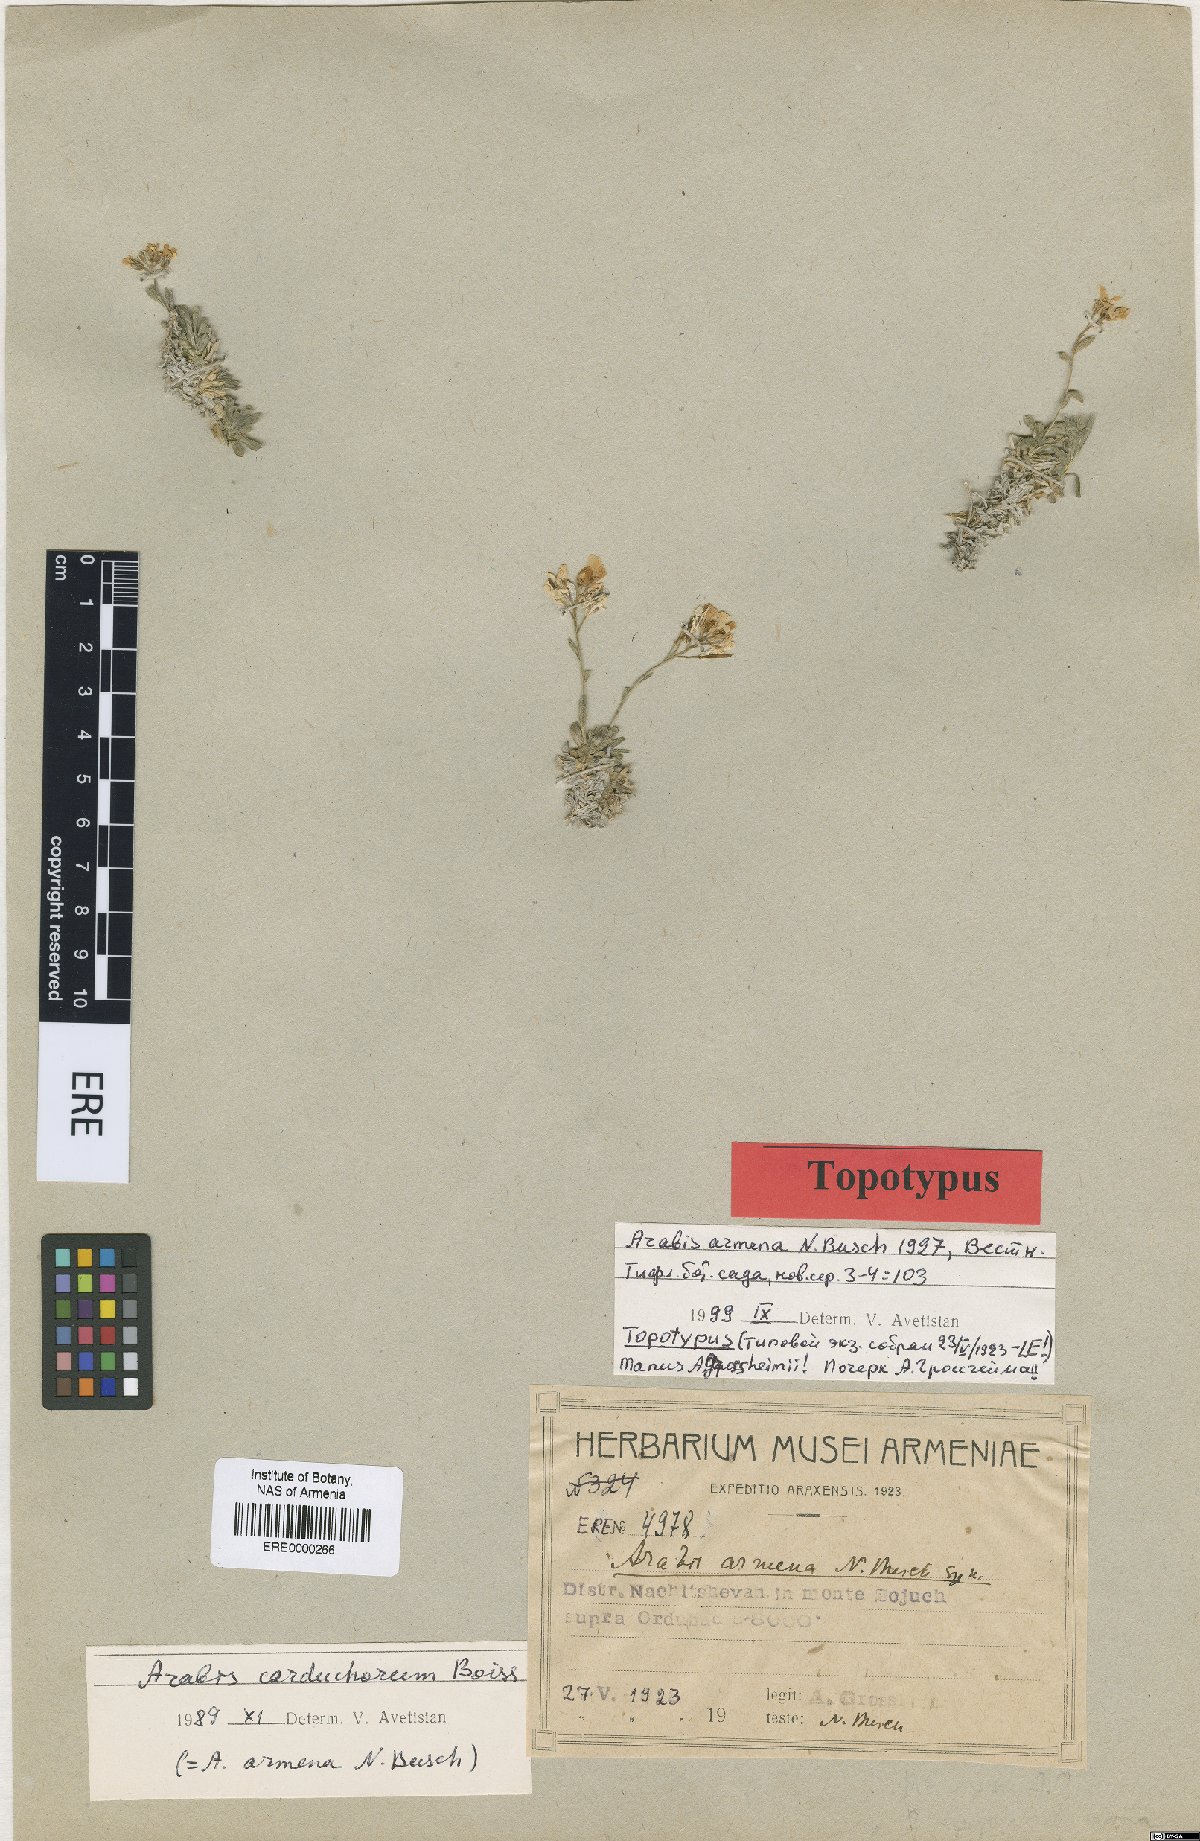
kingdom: Plantae
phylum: Tracheophyta
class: Magnoliopsida
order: Brassicales
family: Brassicaceae
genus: Arabis
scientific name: Arabis carduchorum
